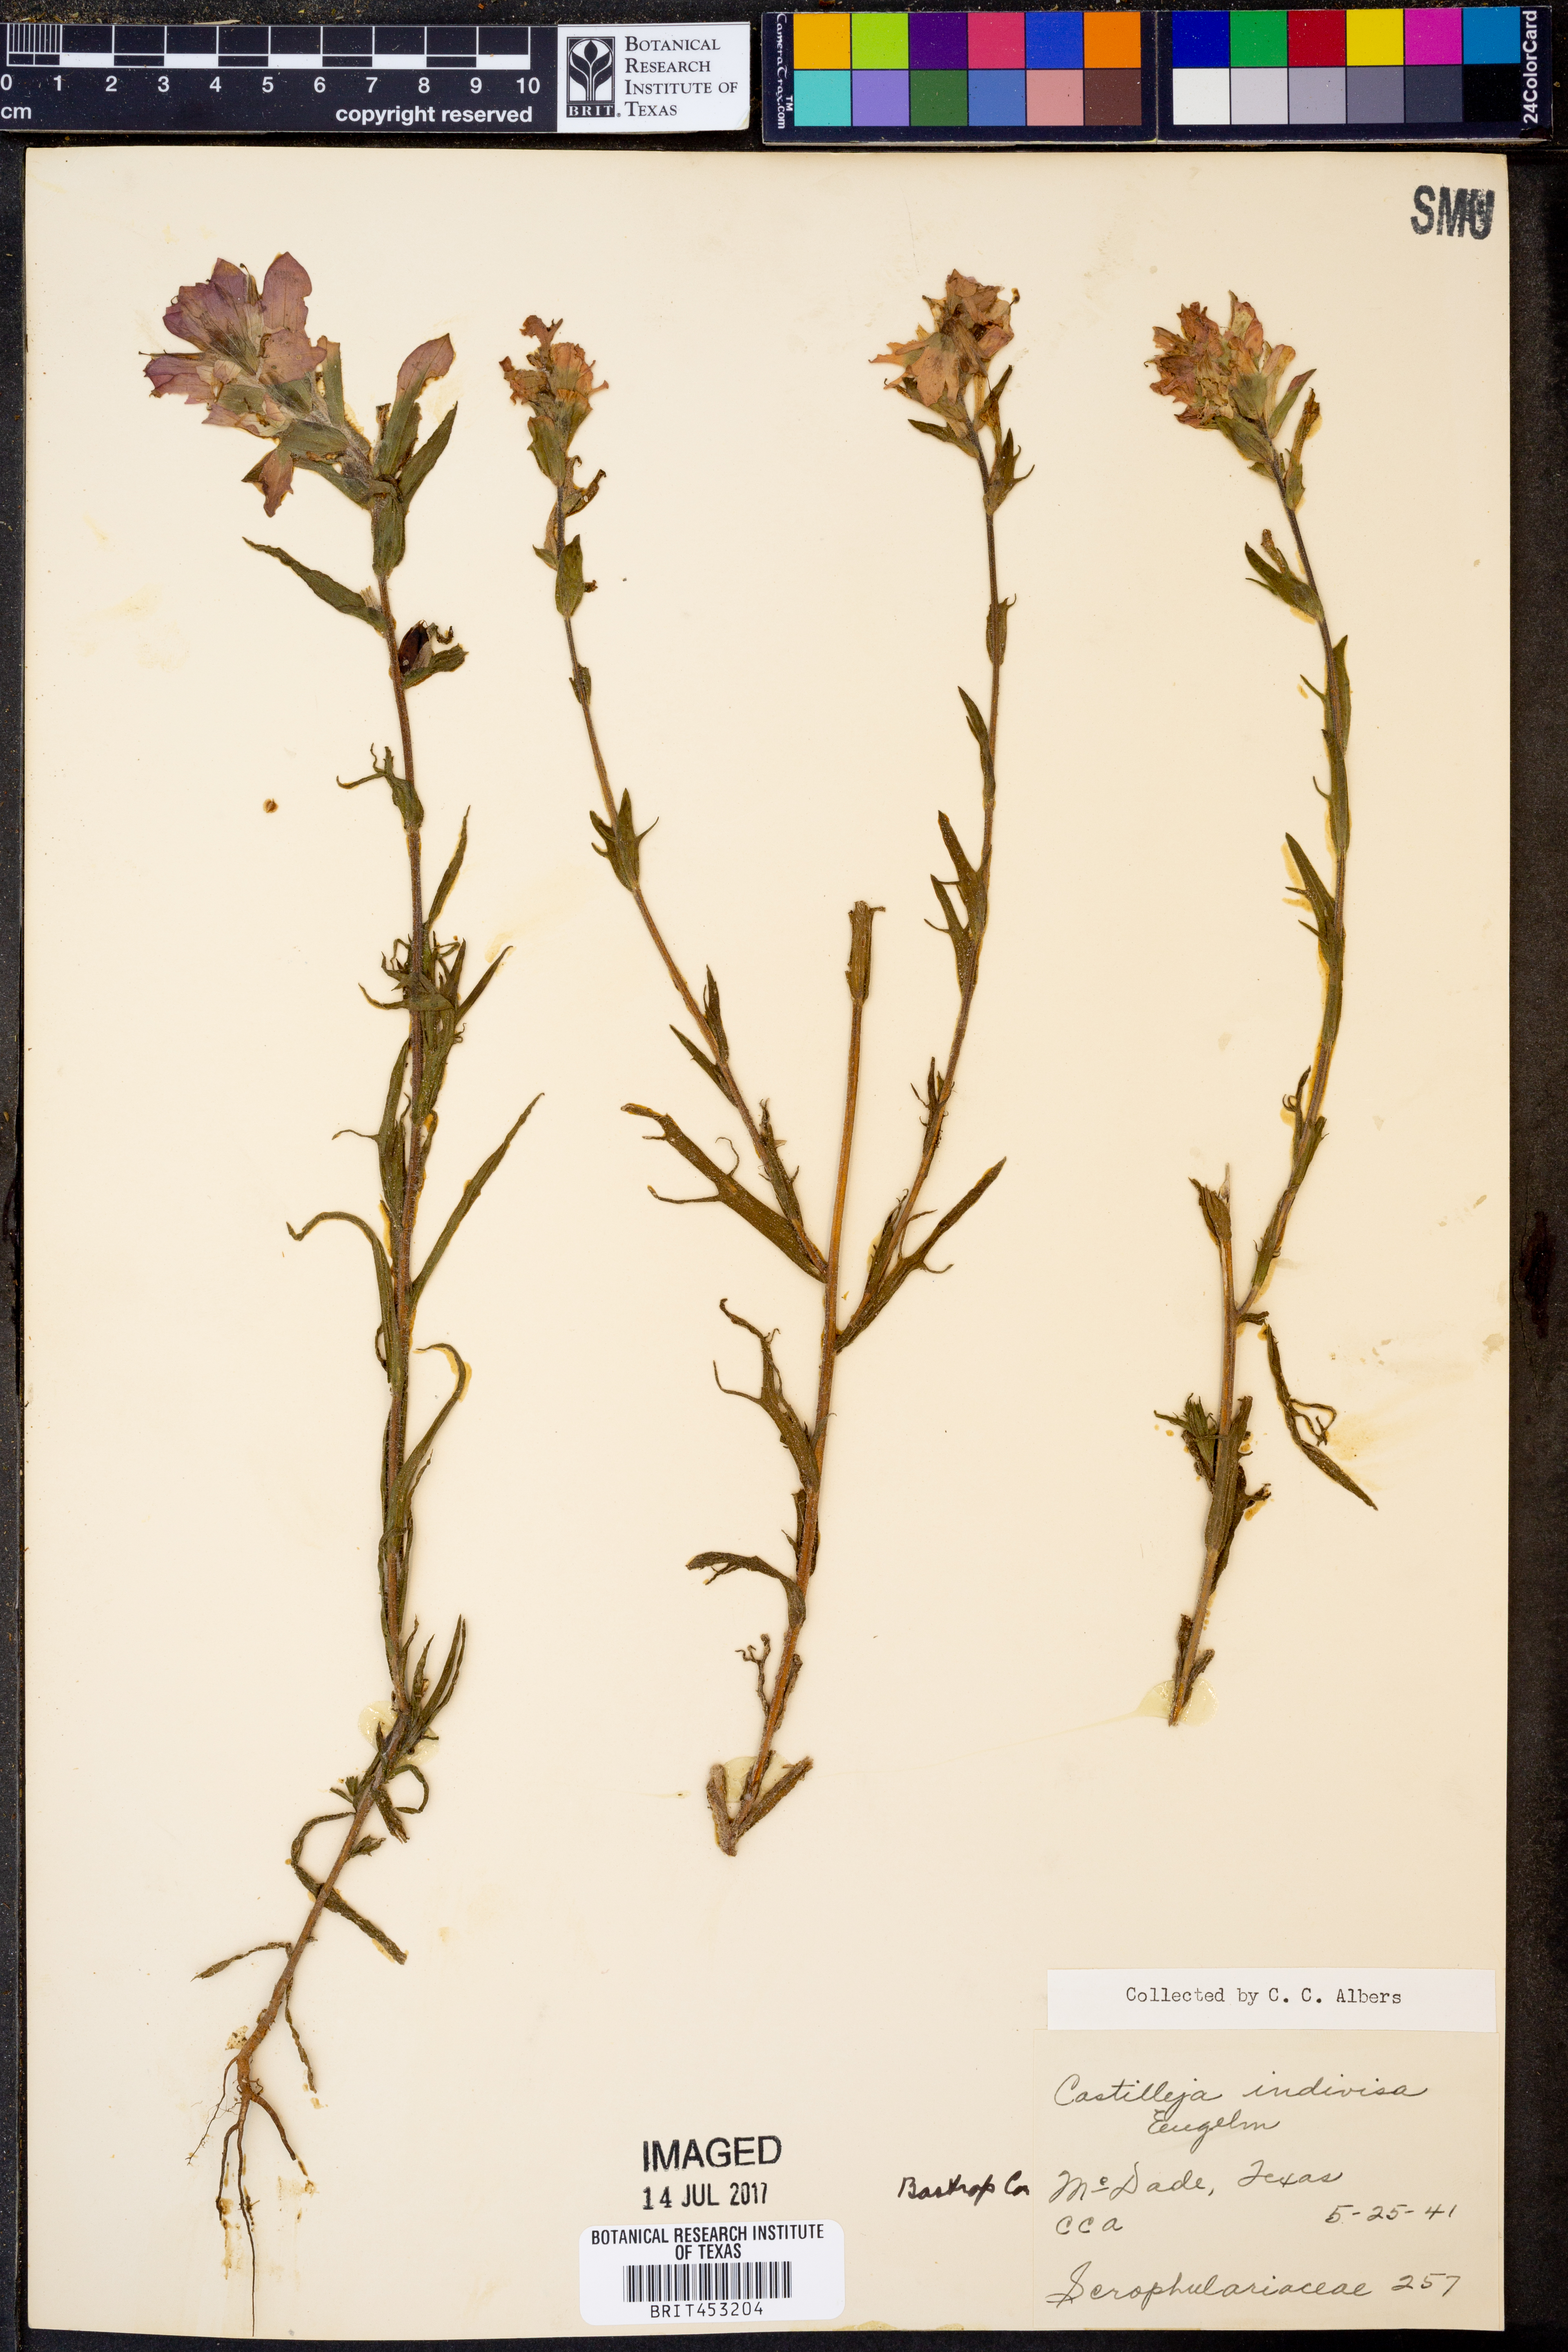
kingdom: Plantae
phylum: Tracheophyta
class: Magnoliopsida
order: Lamiales
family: Orobanchaceae
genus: Castilleja
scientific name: Castilleja indivisa
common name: Texas paintbrush
